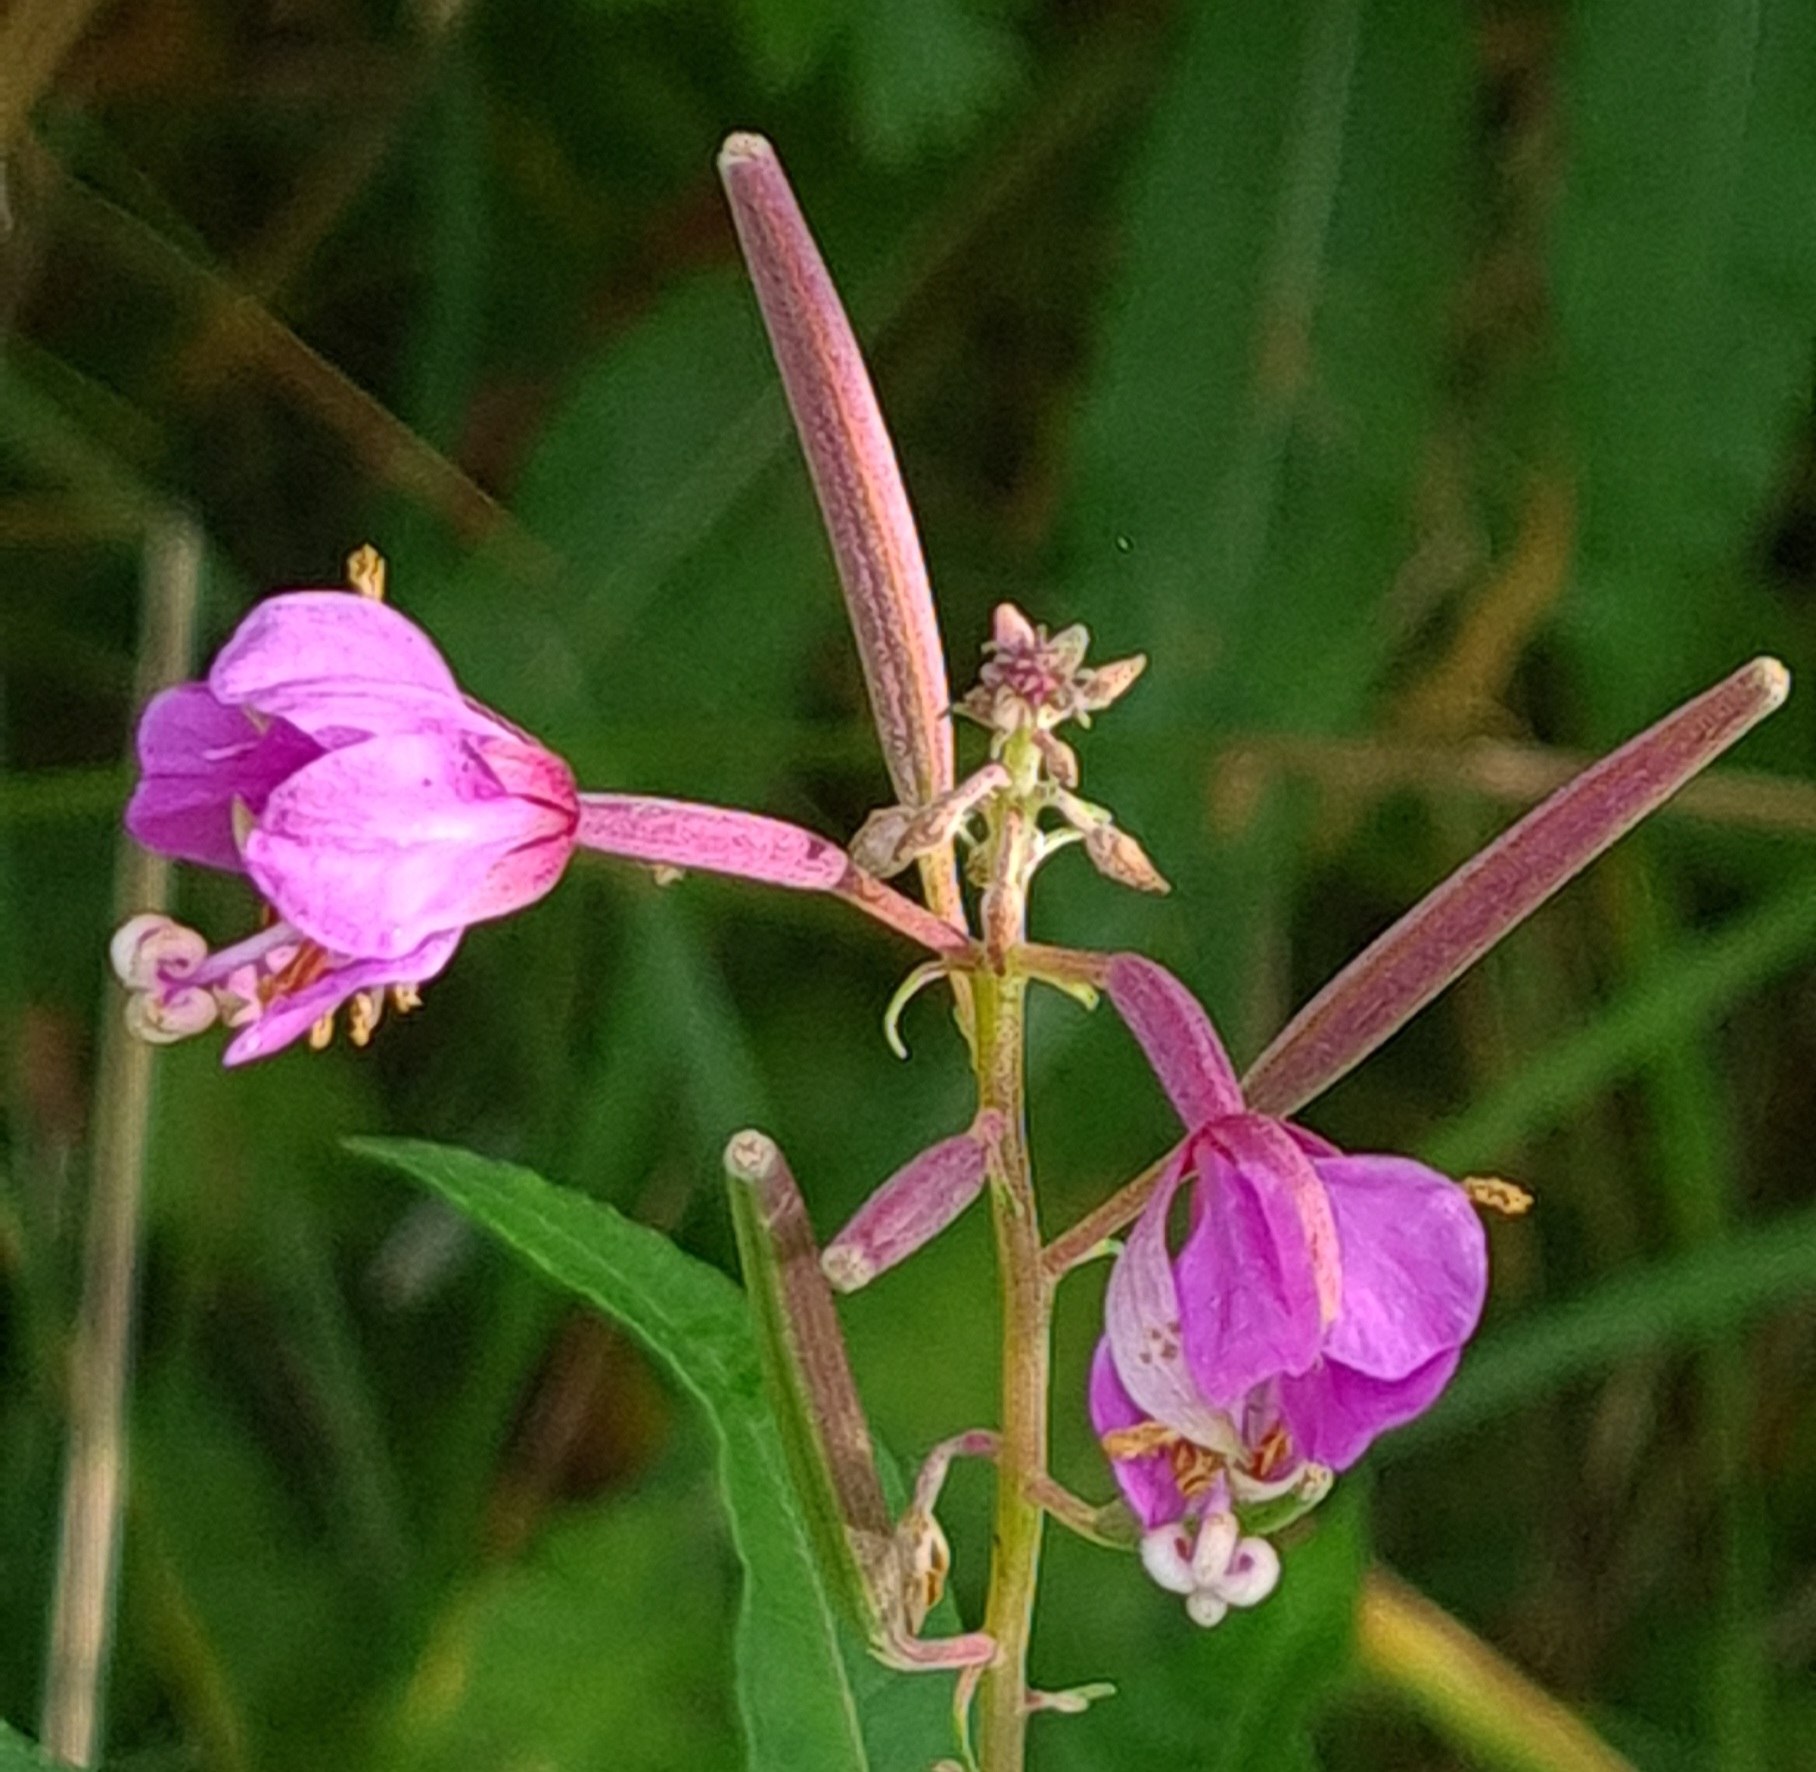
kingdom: Plantae
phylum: Tracheophyta
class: Magnoliopsida
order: Myrtales
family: Onagraceae
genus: Chamaenerion
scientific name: Chamaenerion angustifolium
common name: Gederams
